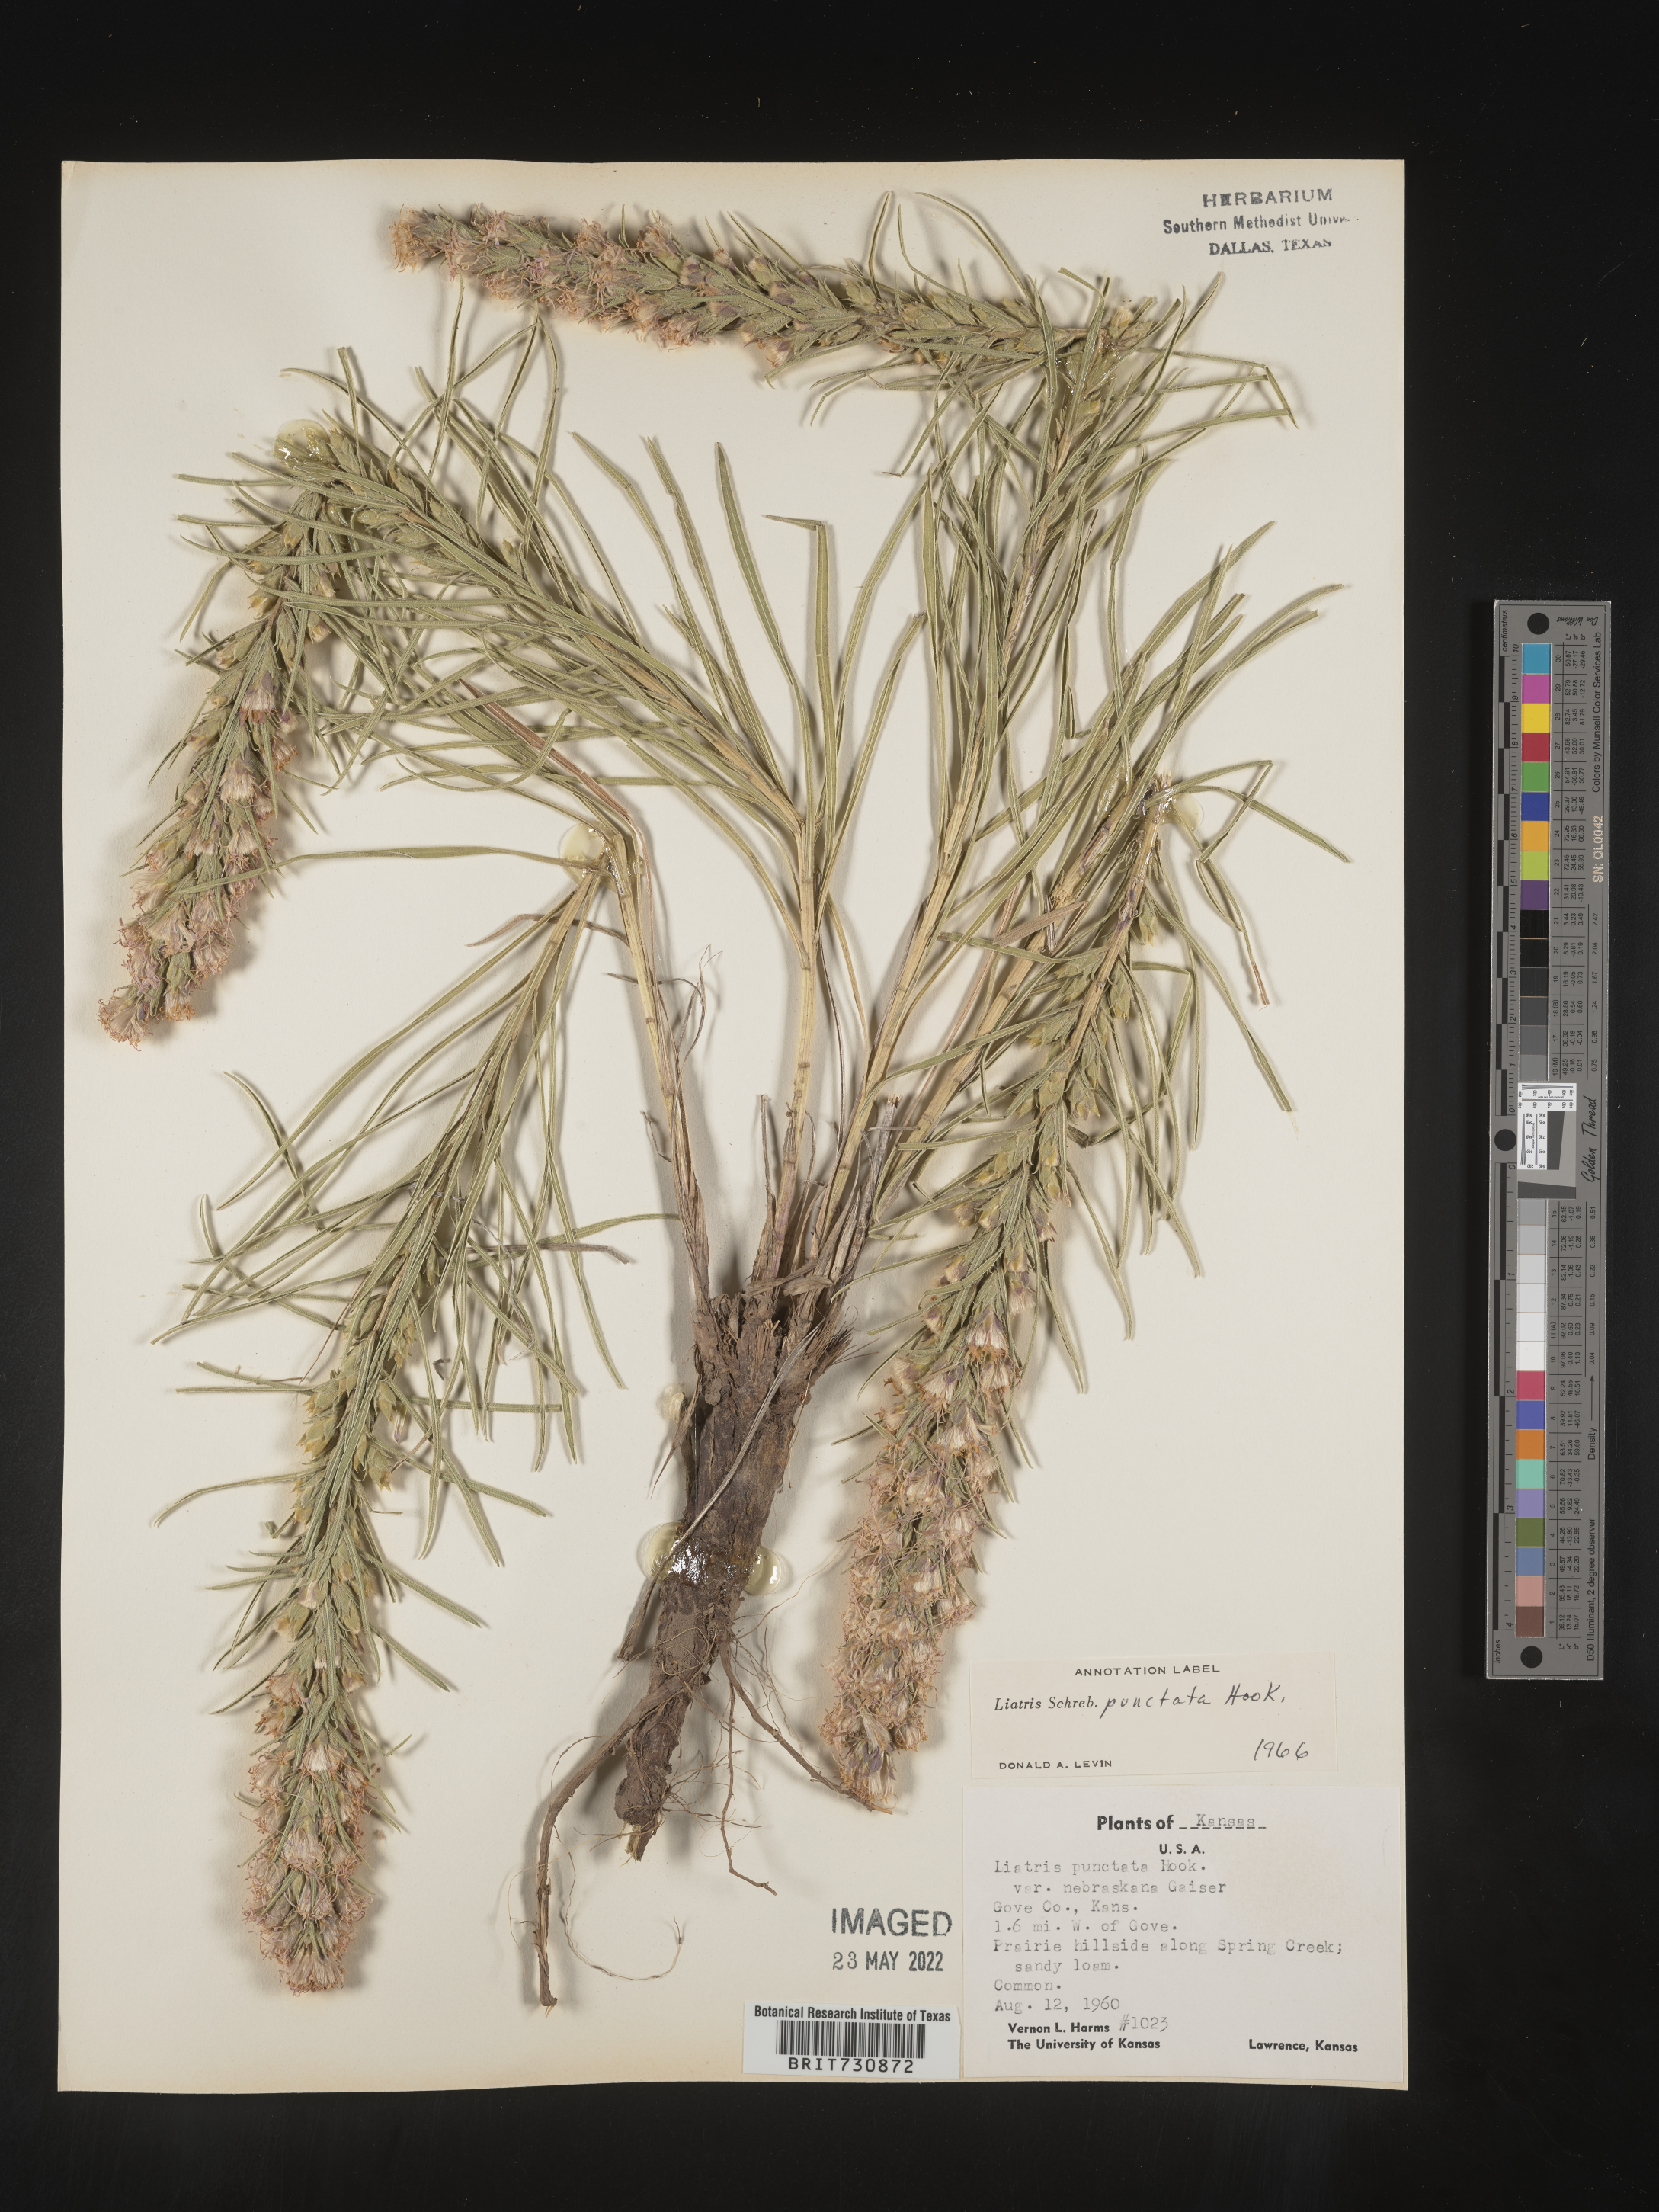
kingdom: Plantae
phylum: Tracheophyta
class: Magnoliopsida
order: Asterales
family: Asteraceae
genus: Liatris
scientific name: Liatris punctata
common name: Dotted gayfeather
